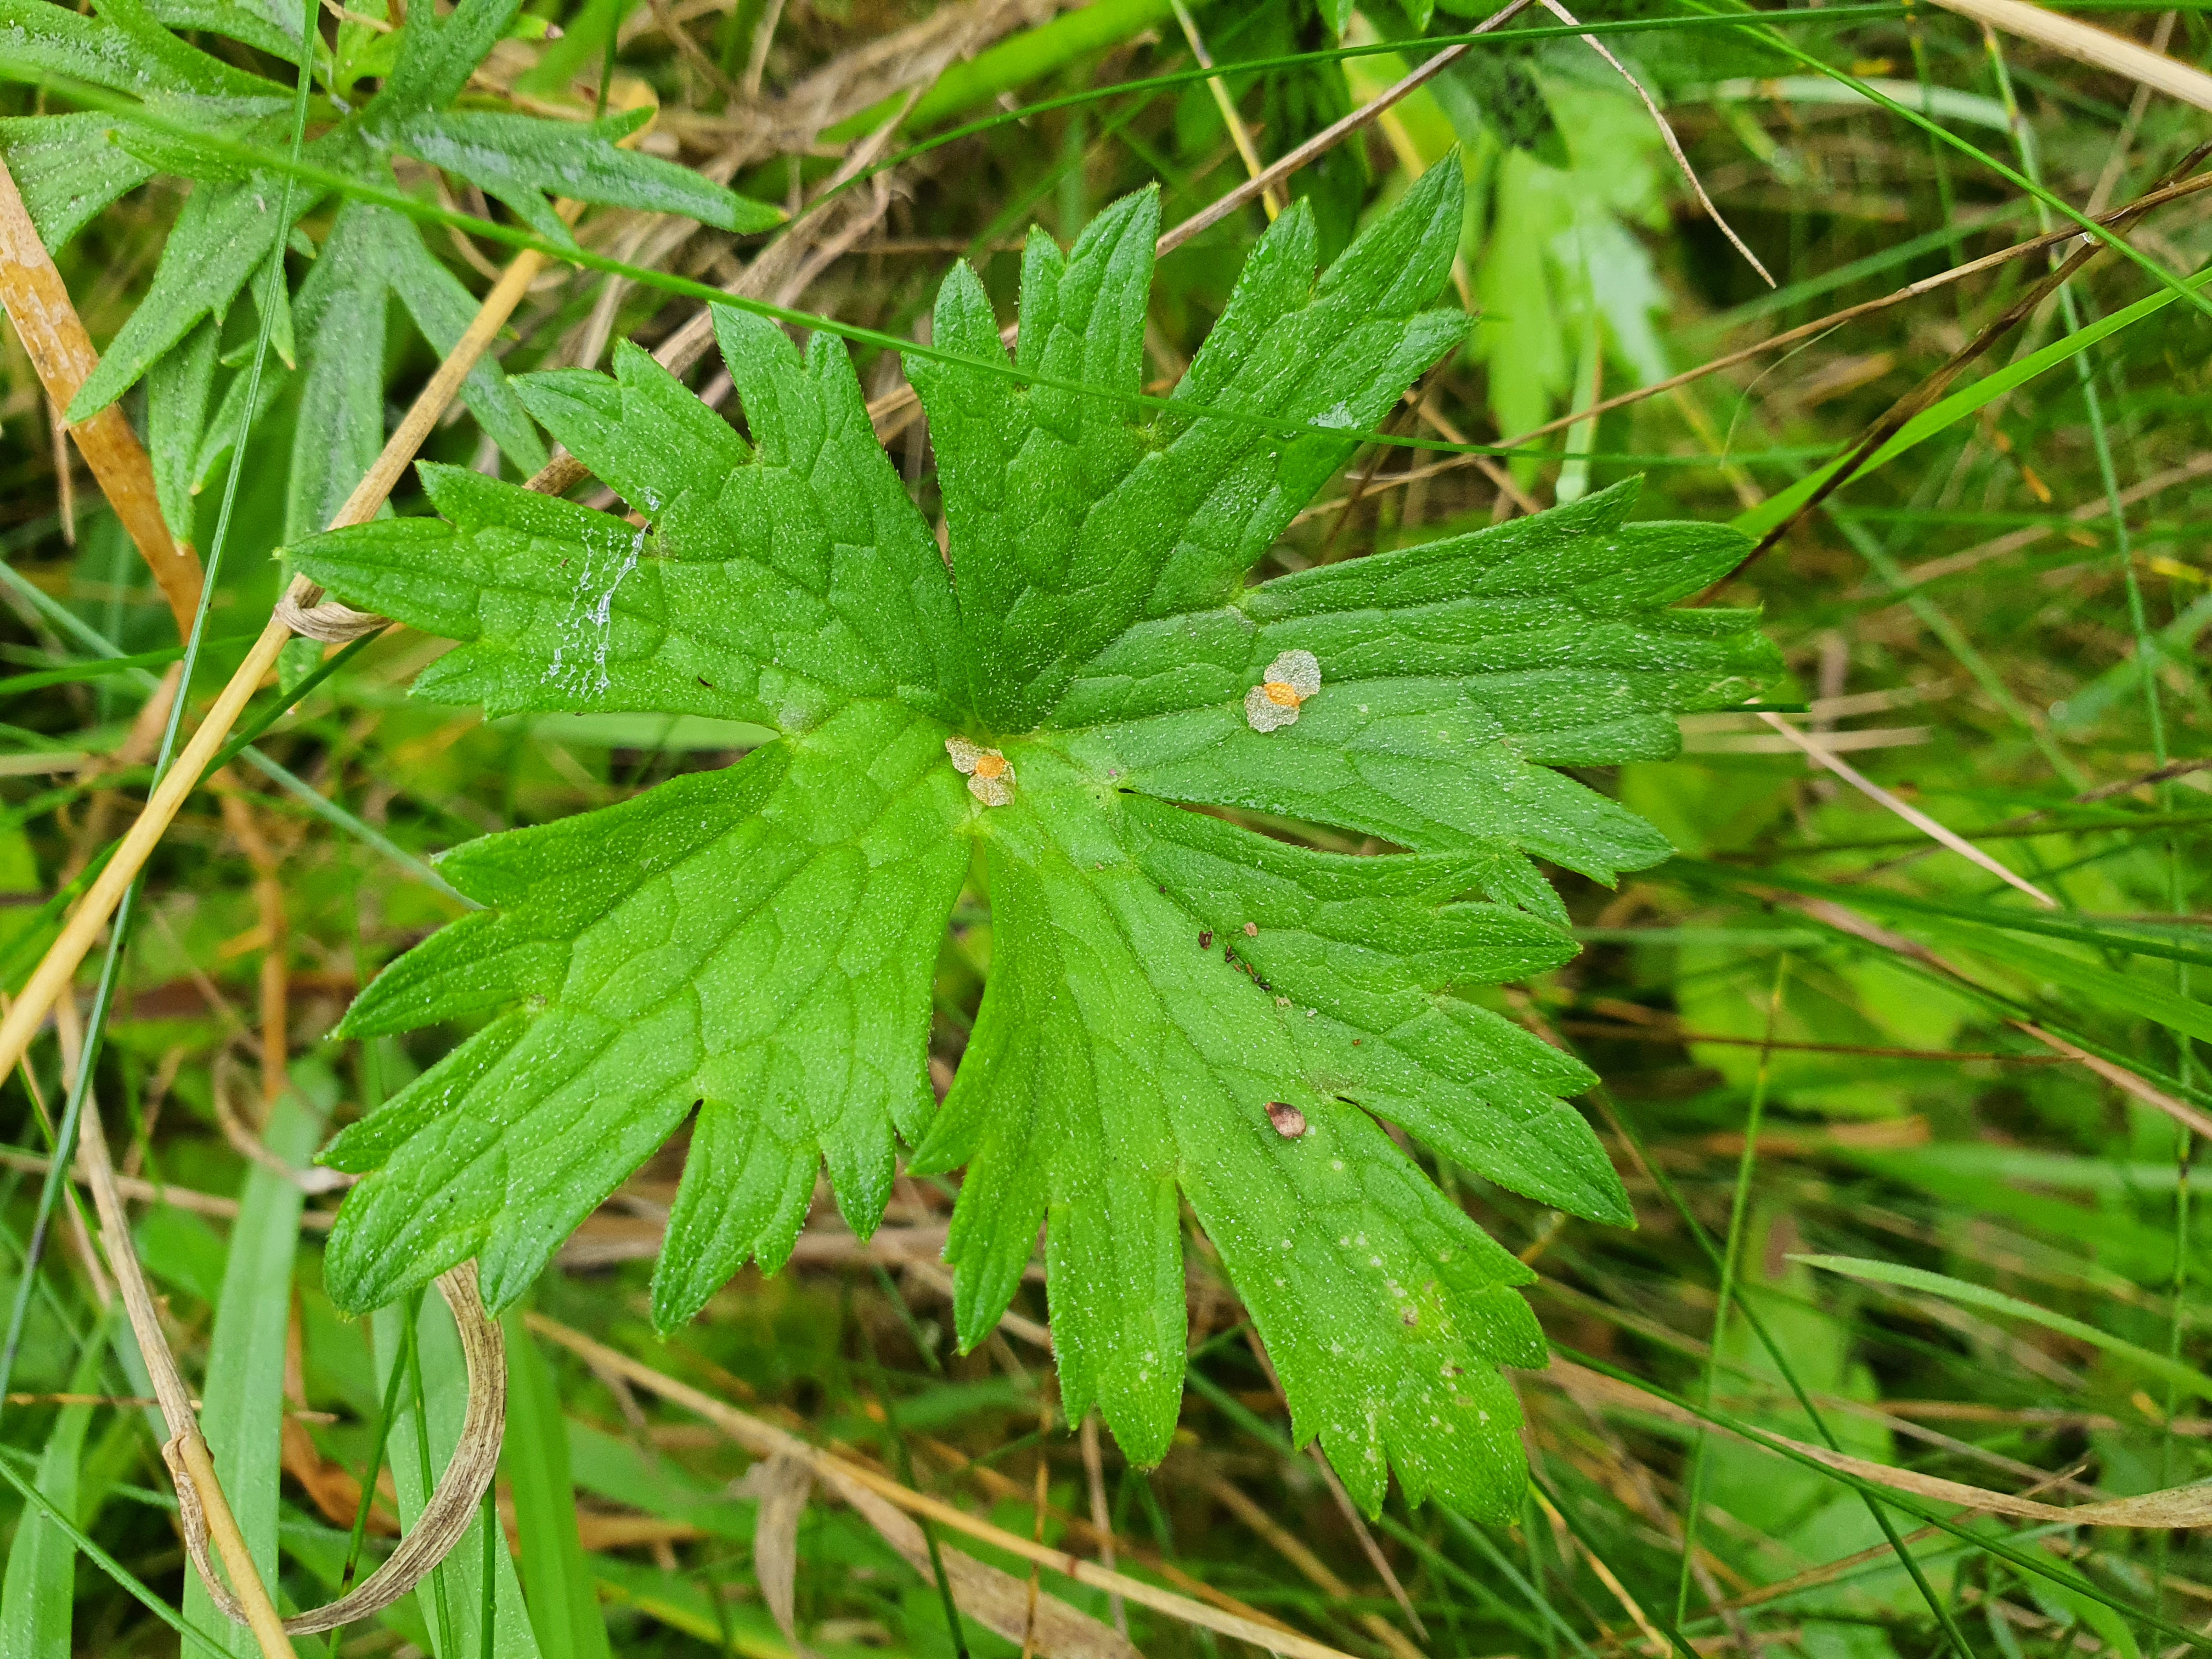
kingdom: Plantae
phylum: Tracheophyta
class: Magnoliopsida
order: Ranunculales
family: Ranunculaceae
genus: Ranunculus
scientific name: Ranunculus acris
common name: Bidende ranunkel
